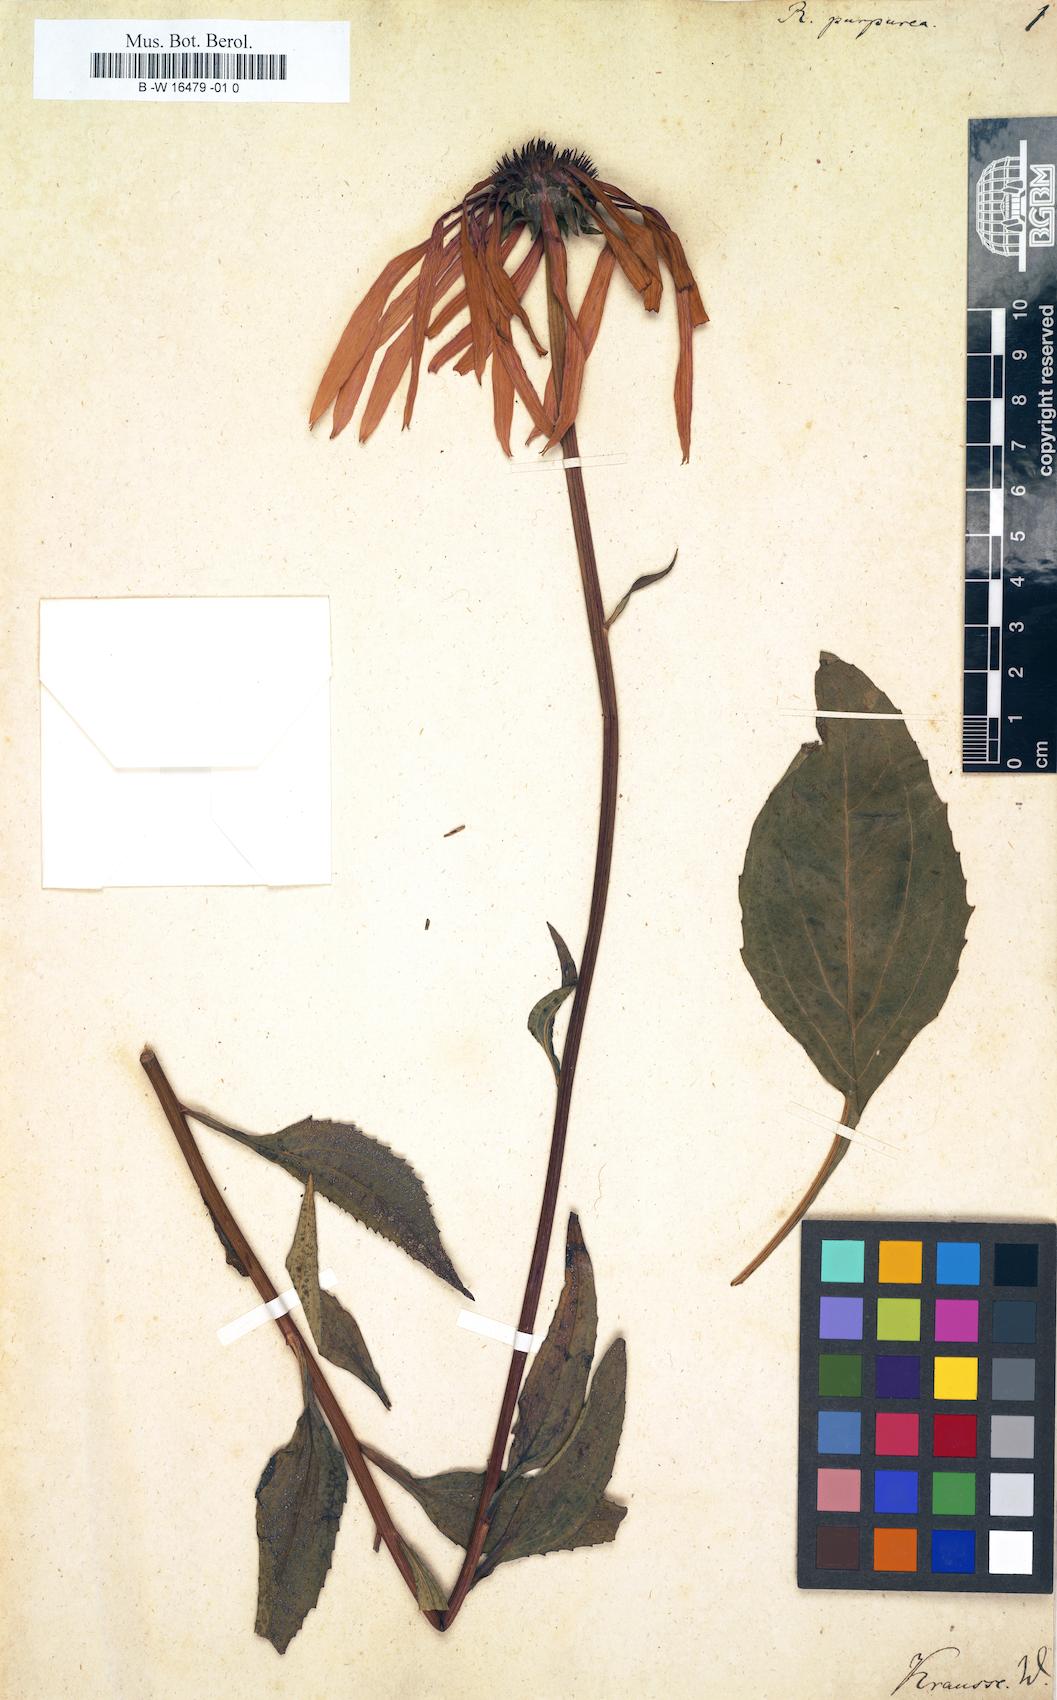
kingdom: Plantae
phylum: Tracheophyta
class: Magnoliopsida
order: Asterales
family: Asteraceae
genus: Echinacea
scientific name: Echinacea purpurea
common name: Broad-leaved purple coneflower
